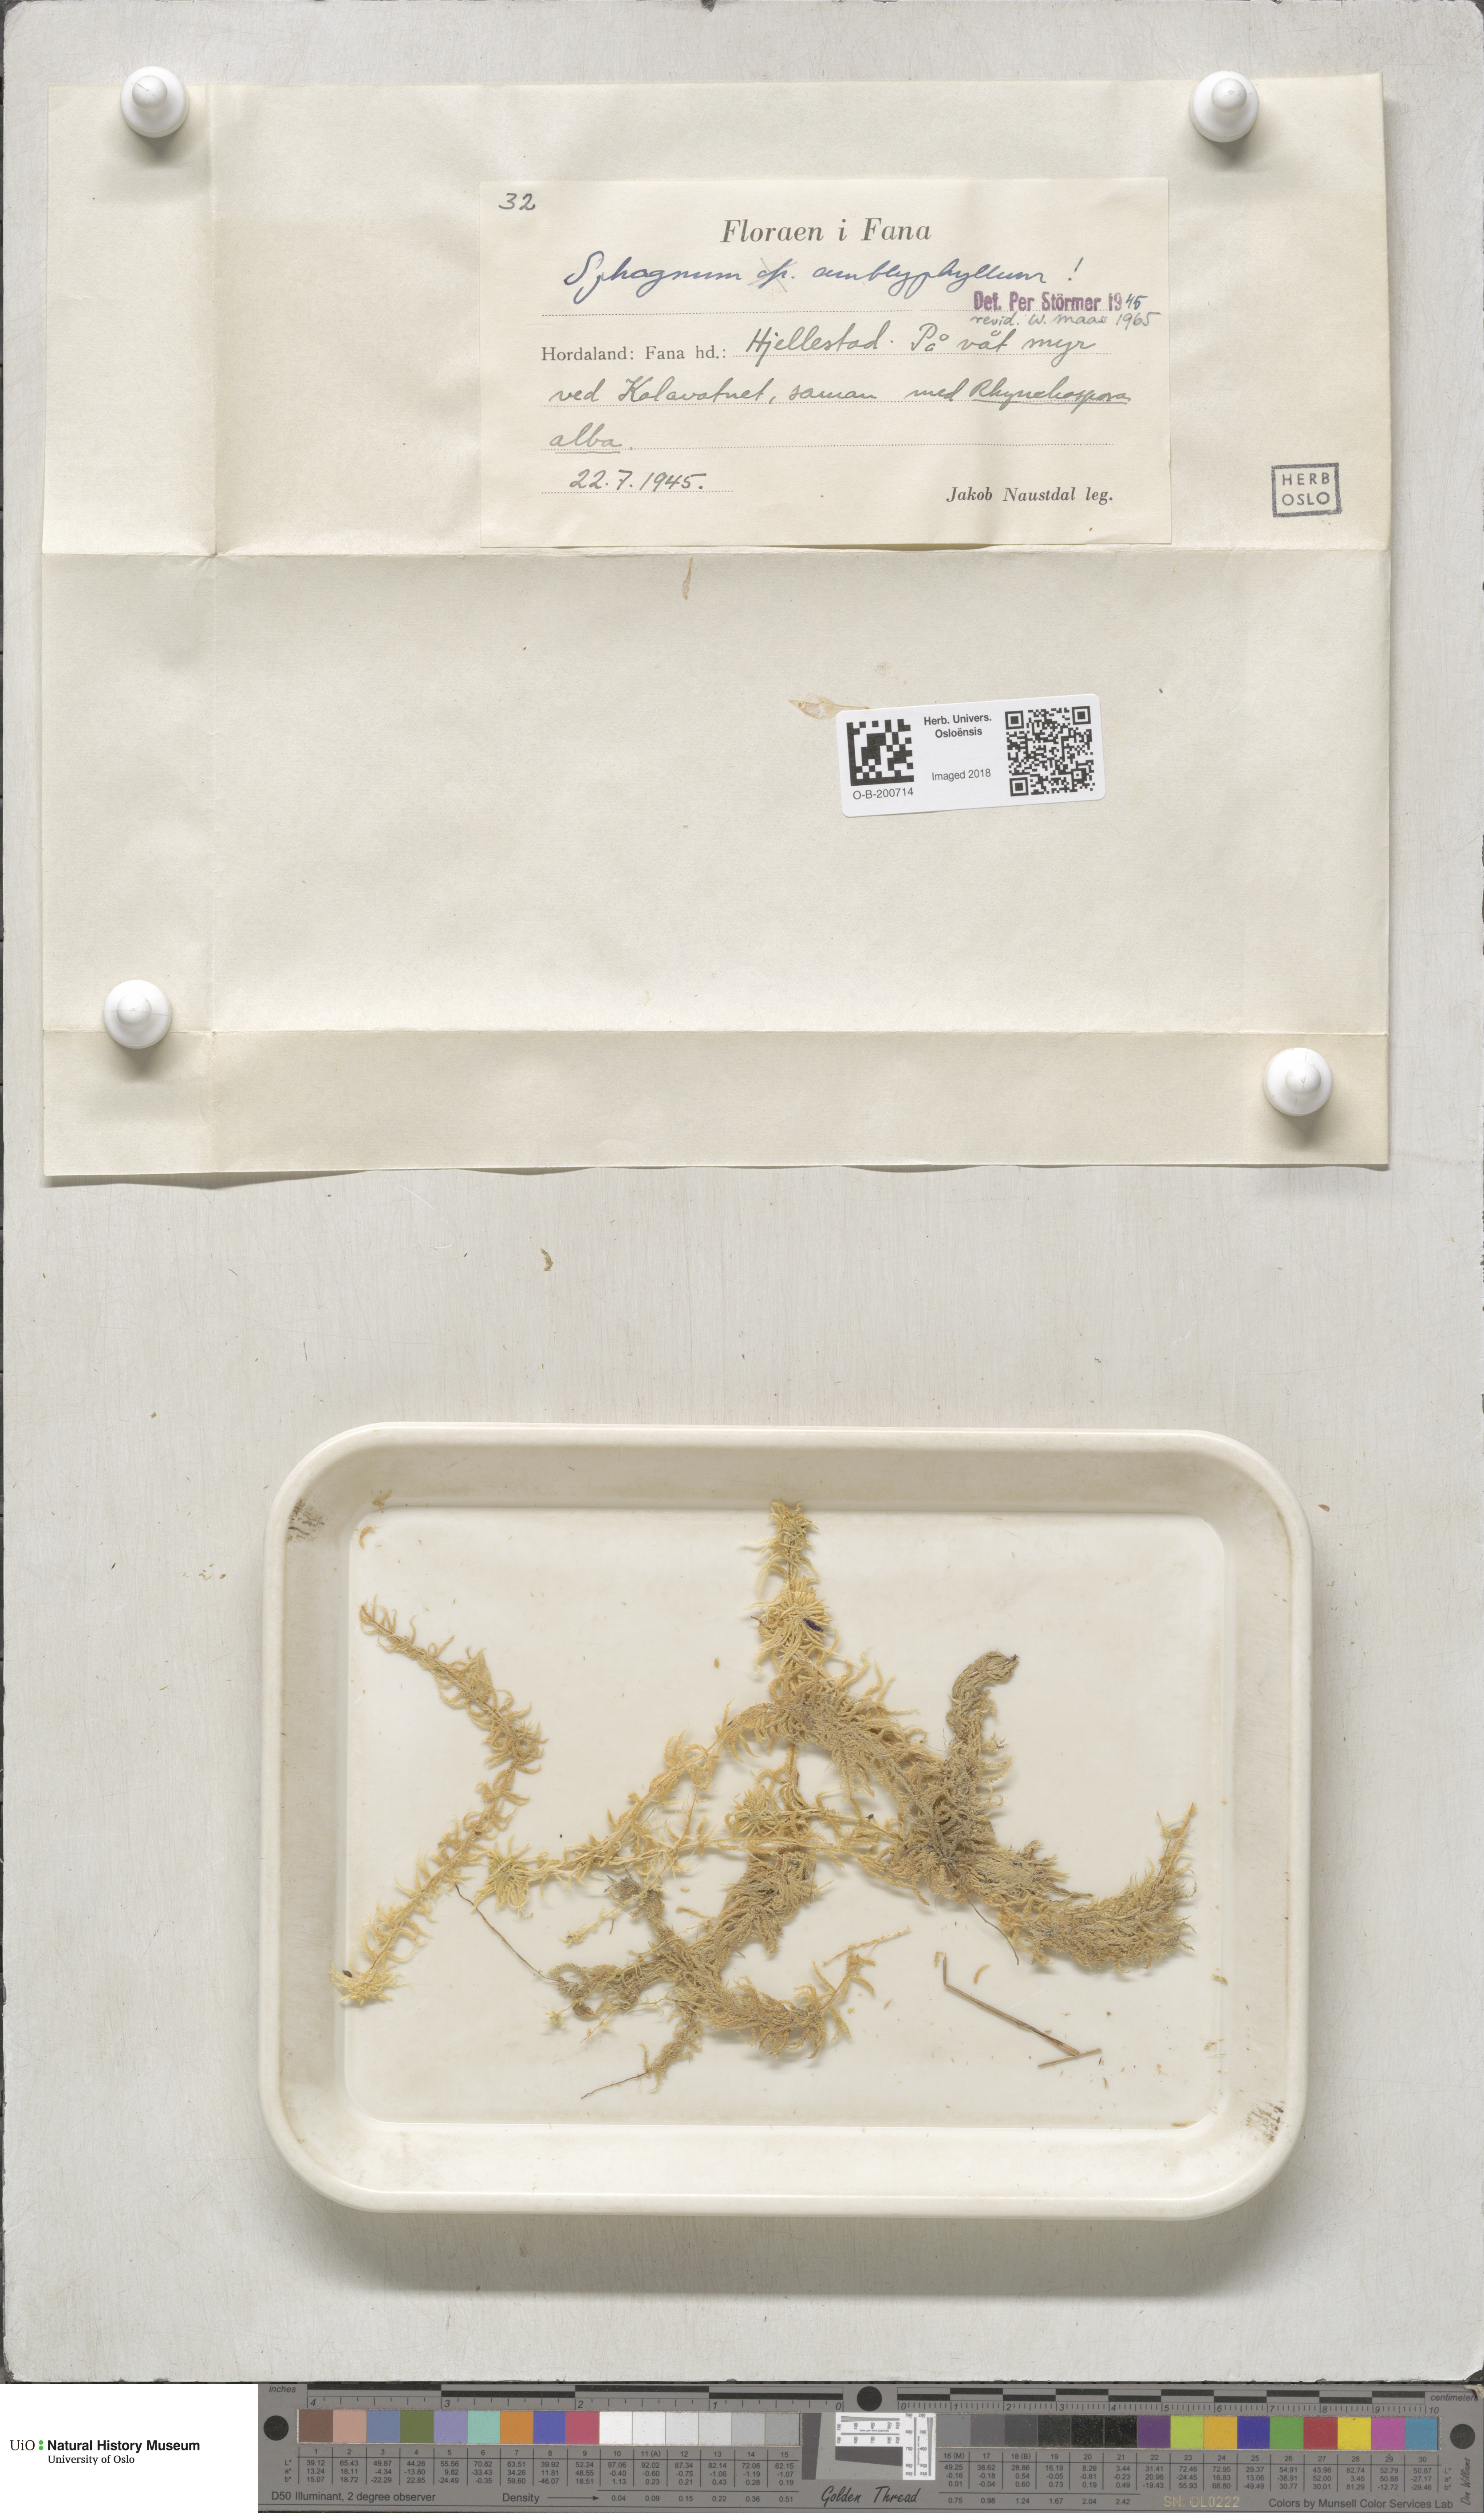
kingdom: Plantae
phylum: Bryophyta
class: Sphagnopsida
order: Sphagnales
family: Sphagnaceae
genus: Sphagnum
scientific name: Sphagnum flexuosum
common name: Flexible peat moss
